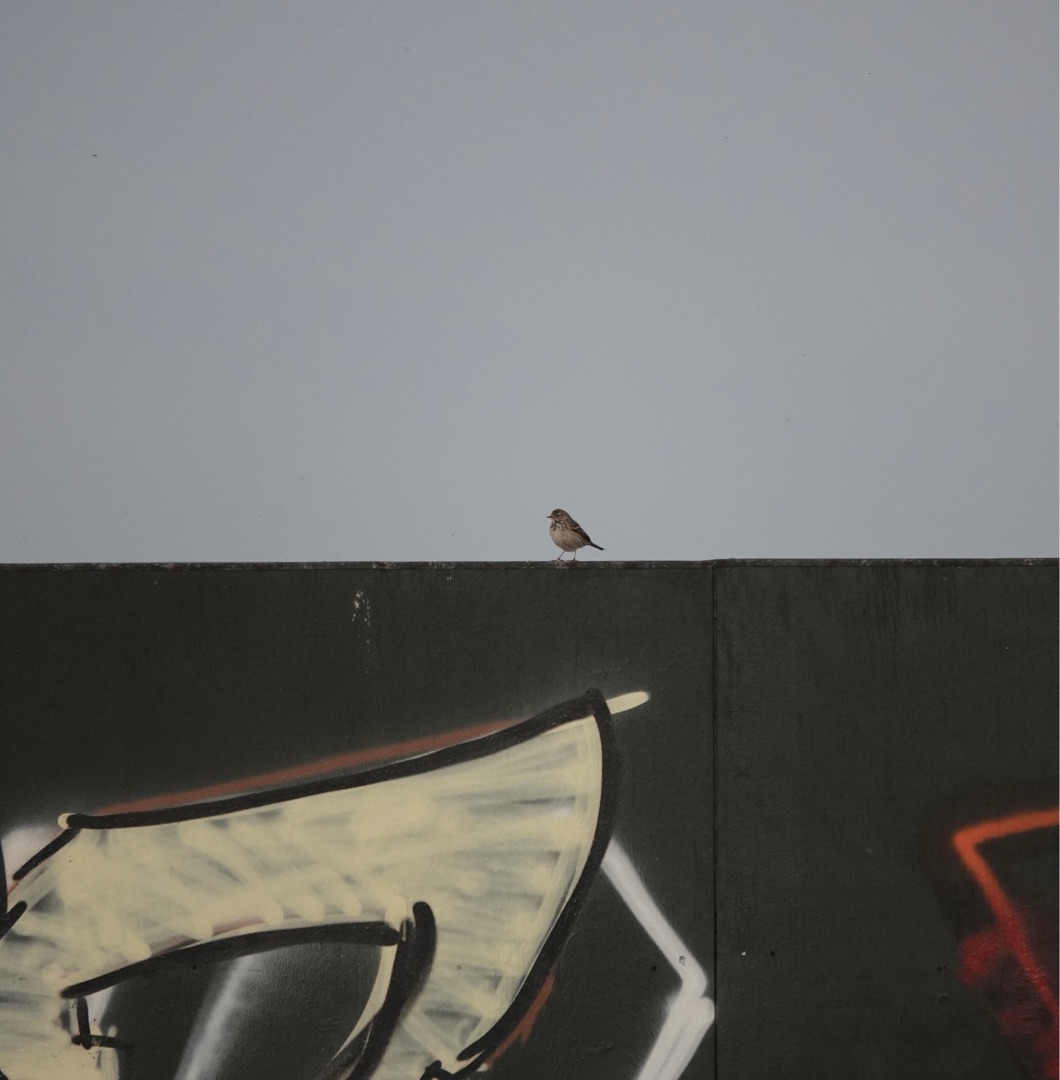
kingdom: Animalia
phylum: Chordata
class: Aves
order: Passeriformes
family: Motacillidae
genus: Anthus
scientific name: Anthus pratensis
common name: Engpiber
